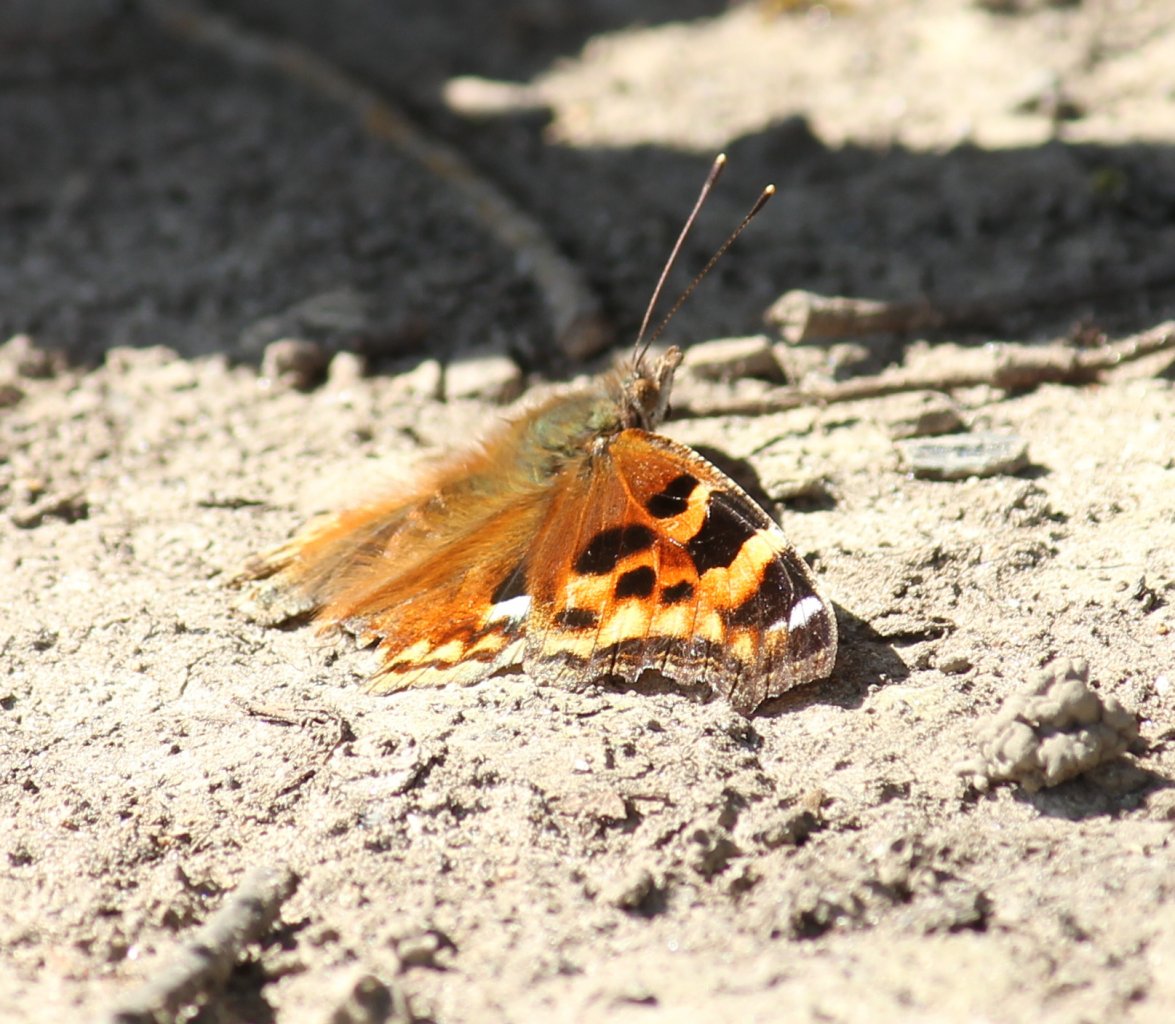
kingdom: Animalia
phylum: Arthropoda
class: Insecta
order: Lepidoptera
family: Nymphalidae
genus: Polygonia
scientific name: Polygonia vaualbum
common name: Compton Tortoiseshell
